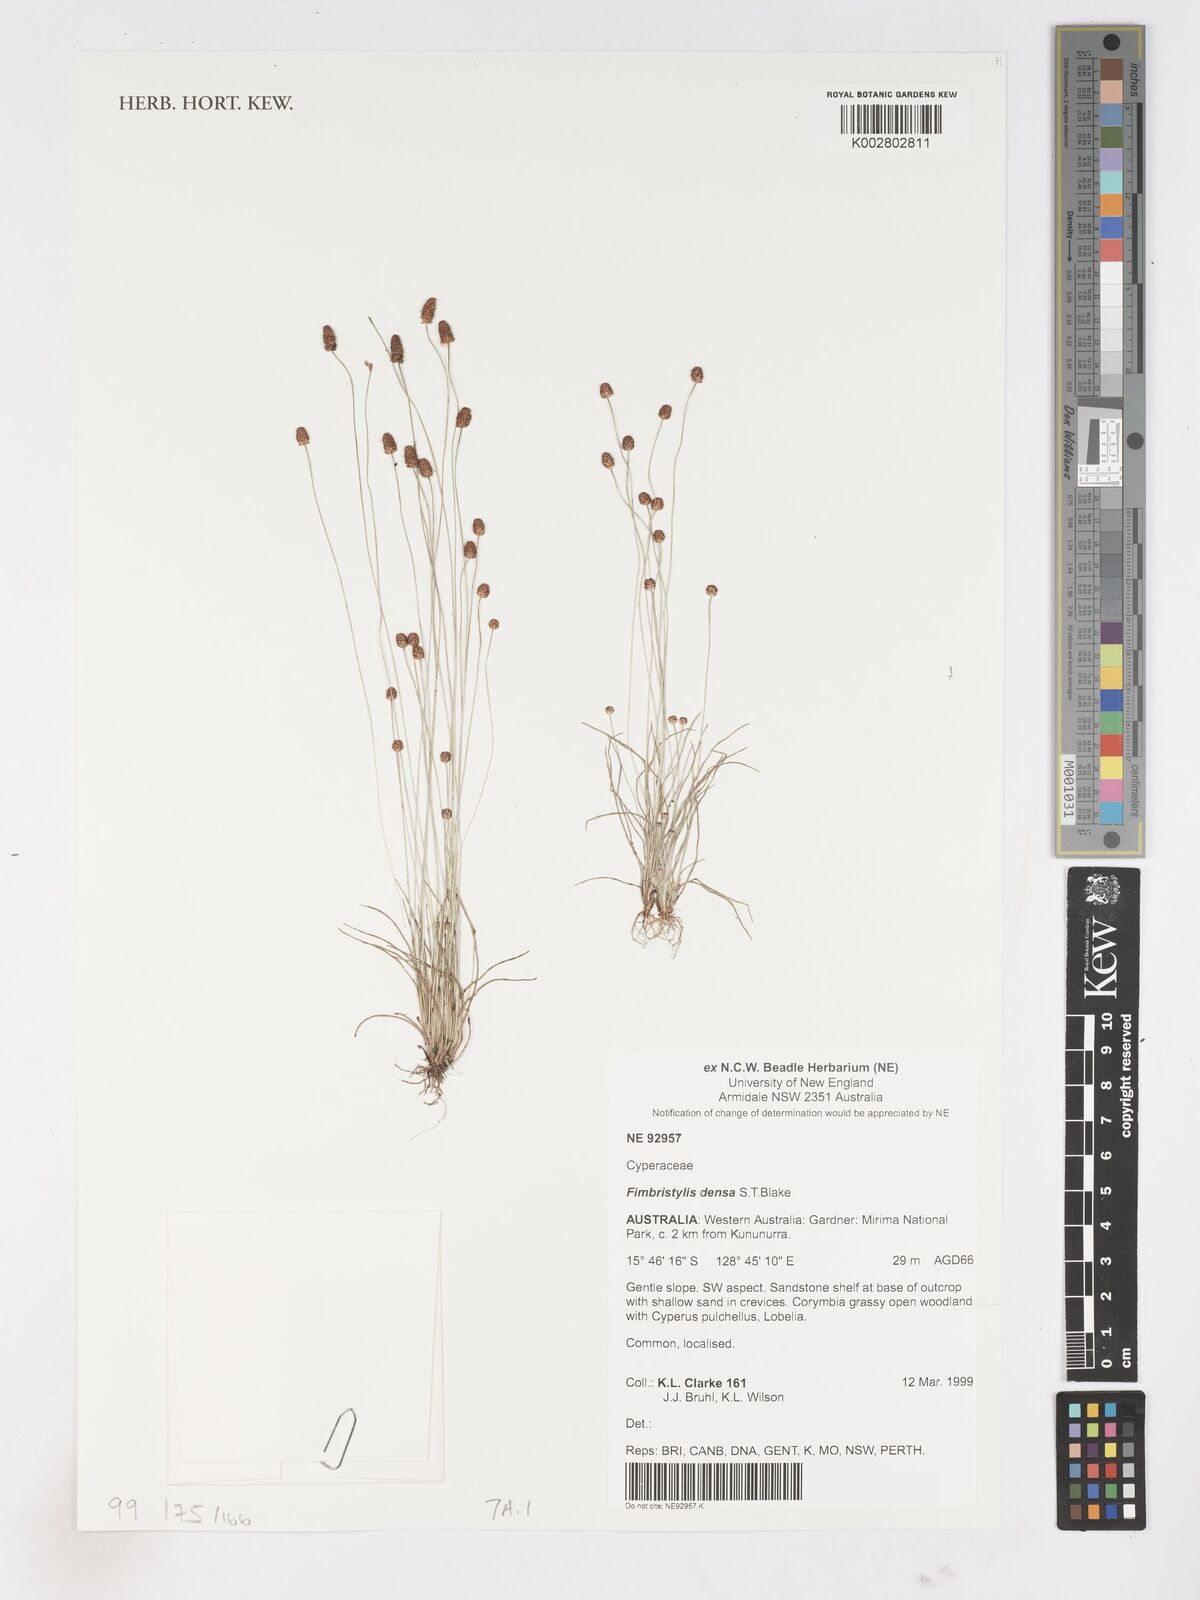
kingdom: Plantae
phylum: Tracheophyta
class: Liliopsida
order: Poales
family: Cyperaceae
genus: Fimbristylis
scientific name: Fimbristylis densa
